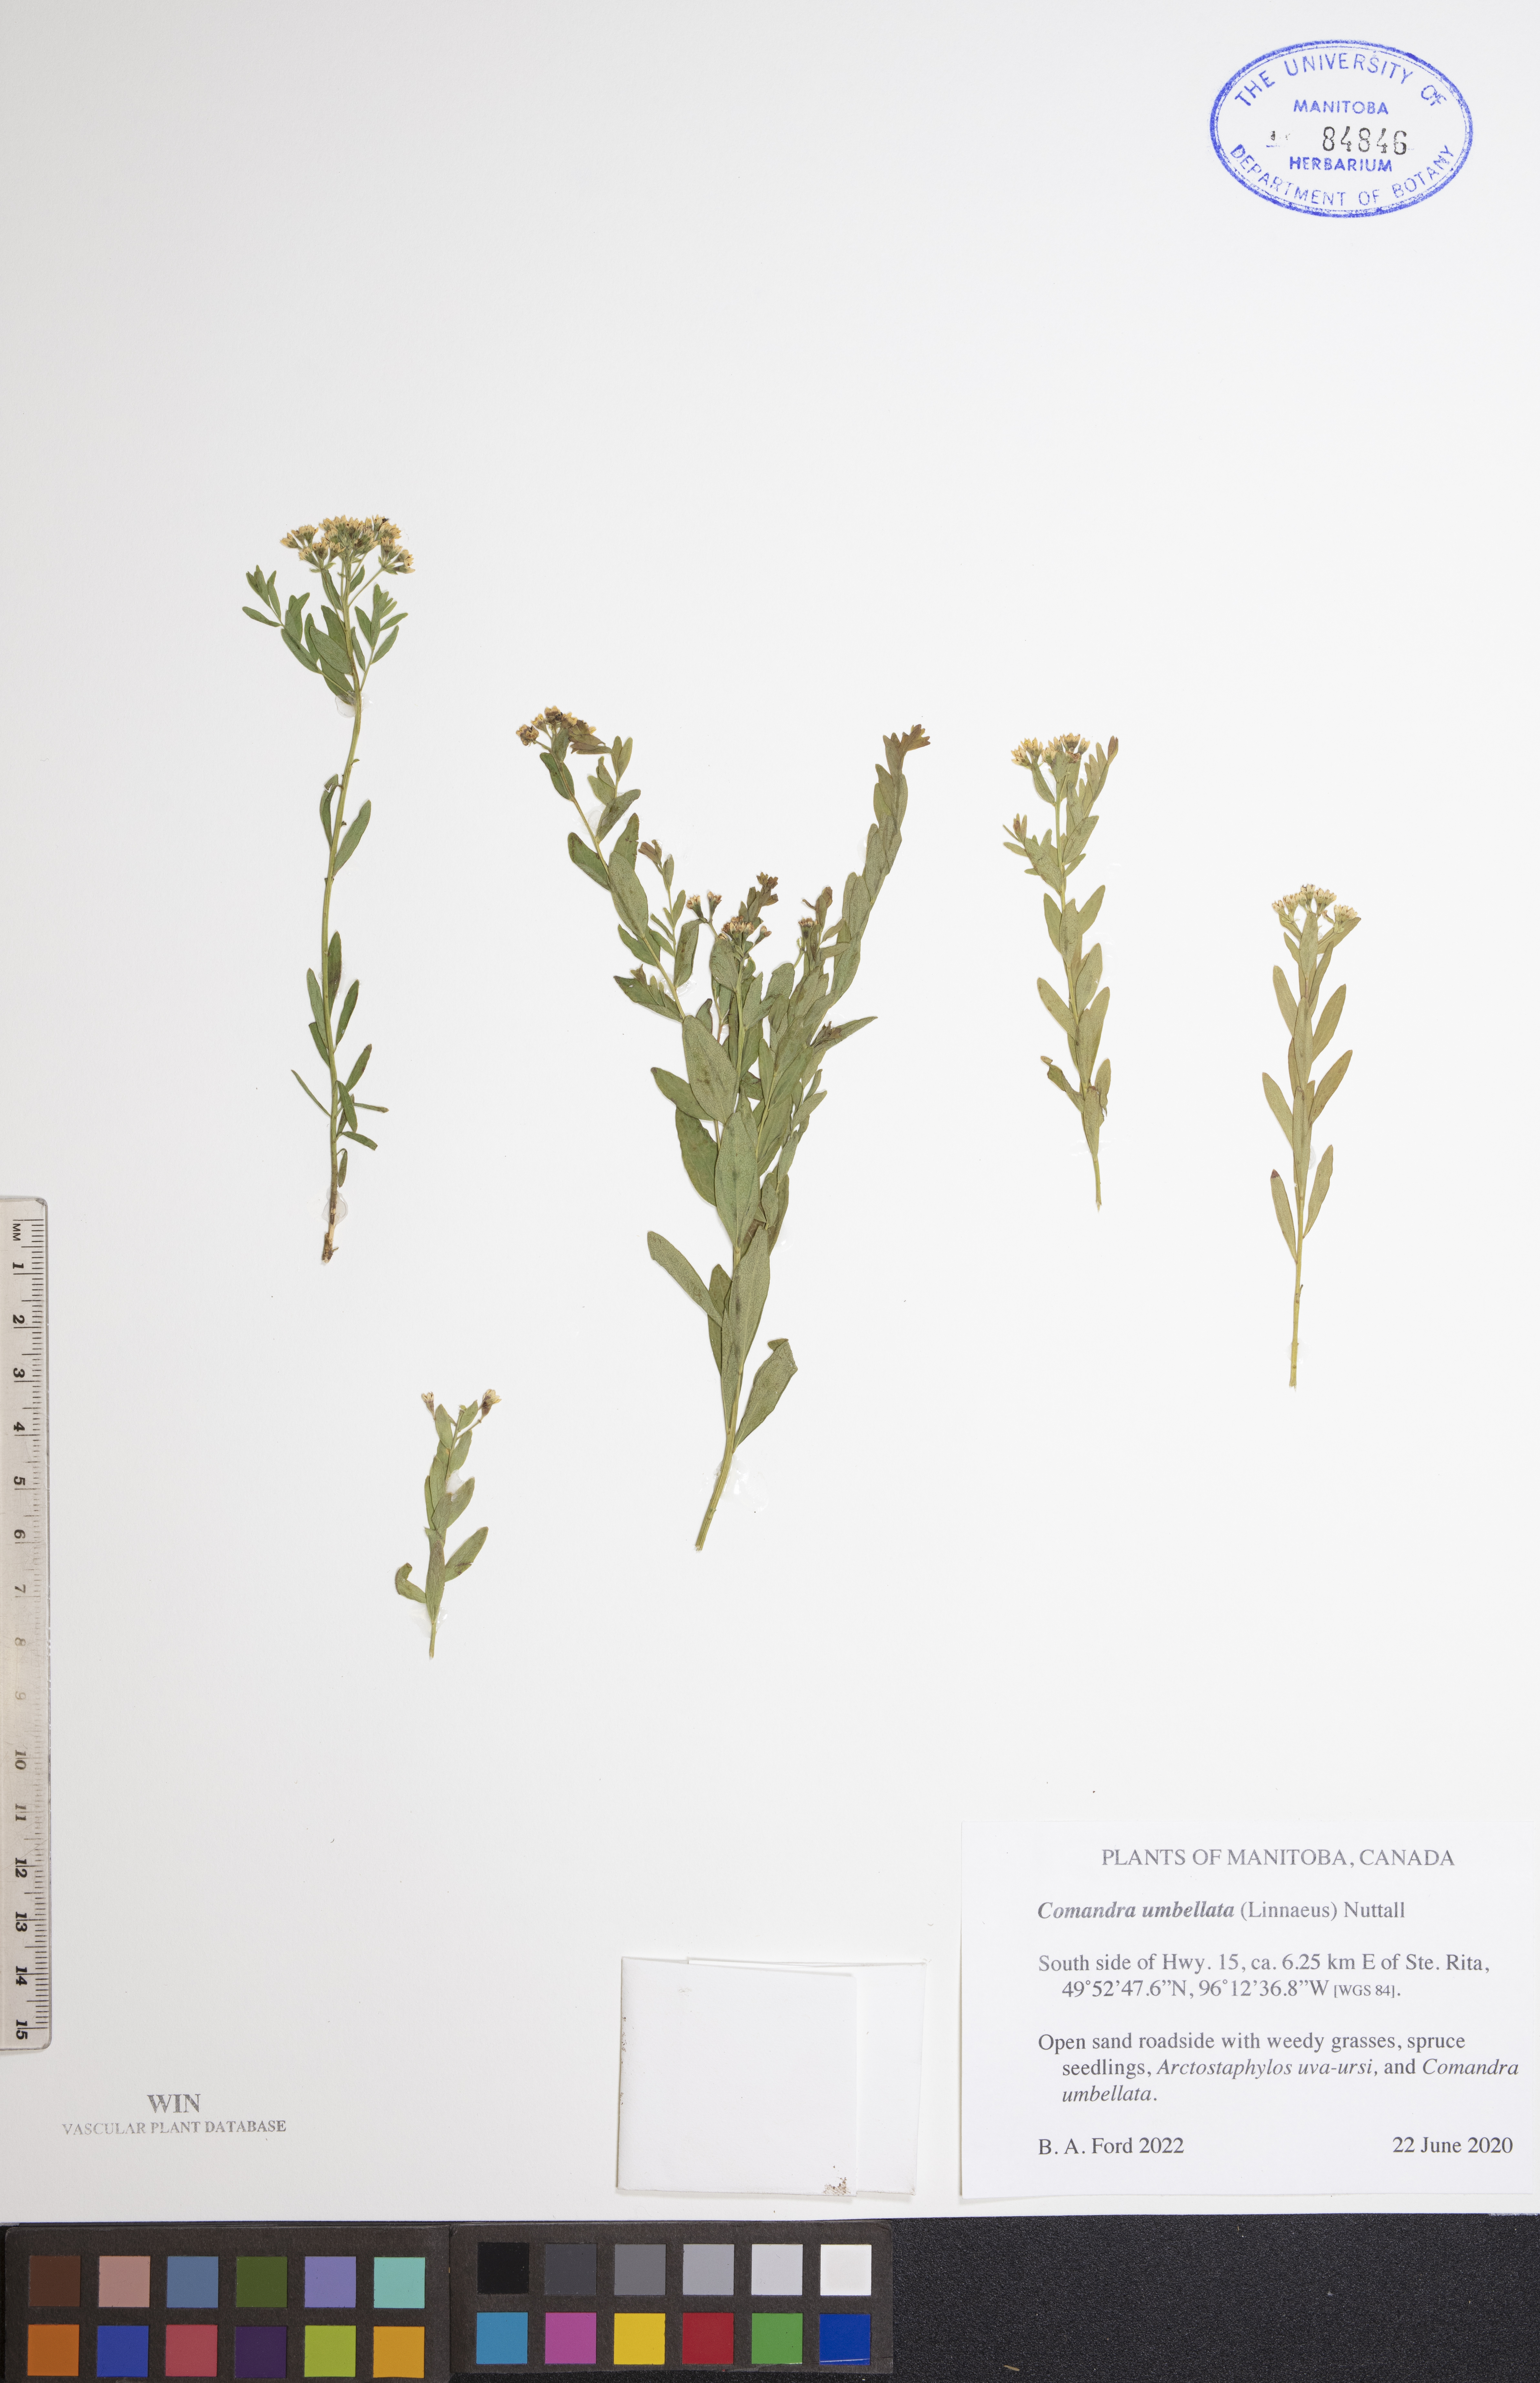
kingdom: Plantae
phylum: Tracheophyta
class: Magnoliopsida
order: Santalales
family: Comandraceae
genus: Comandra
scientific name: Comandra umbellata
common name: Bastard toadflax
